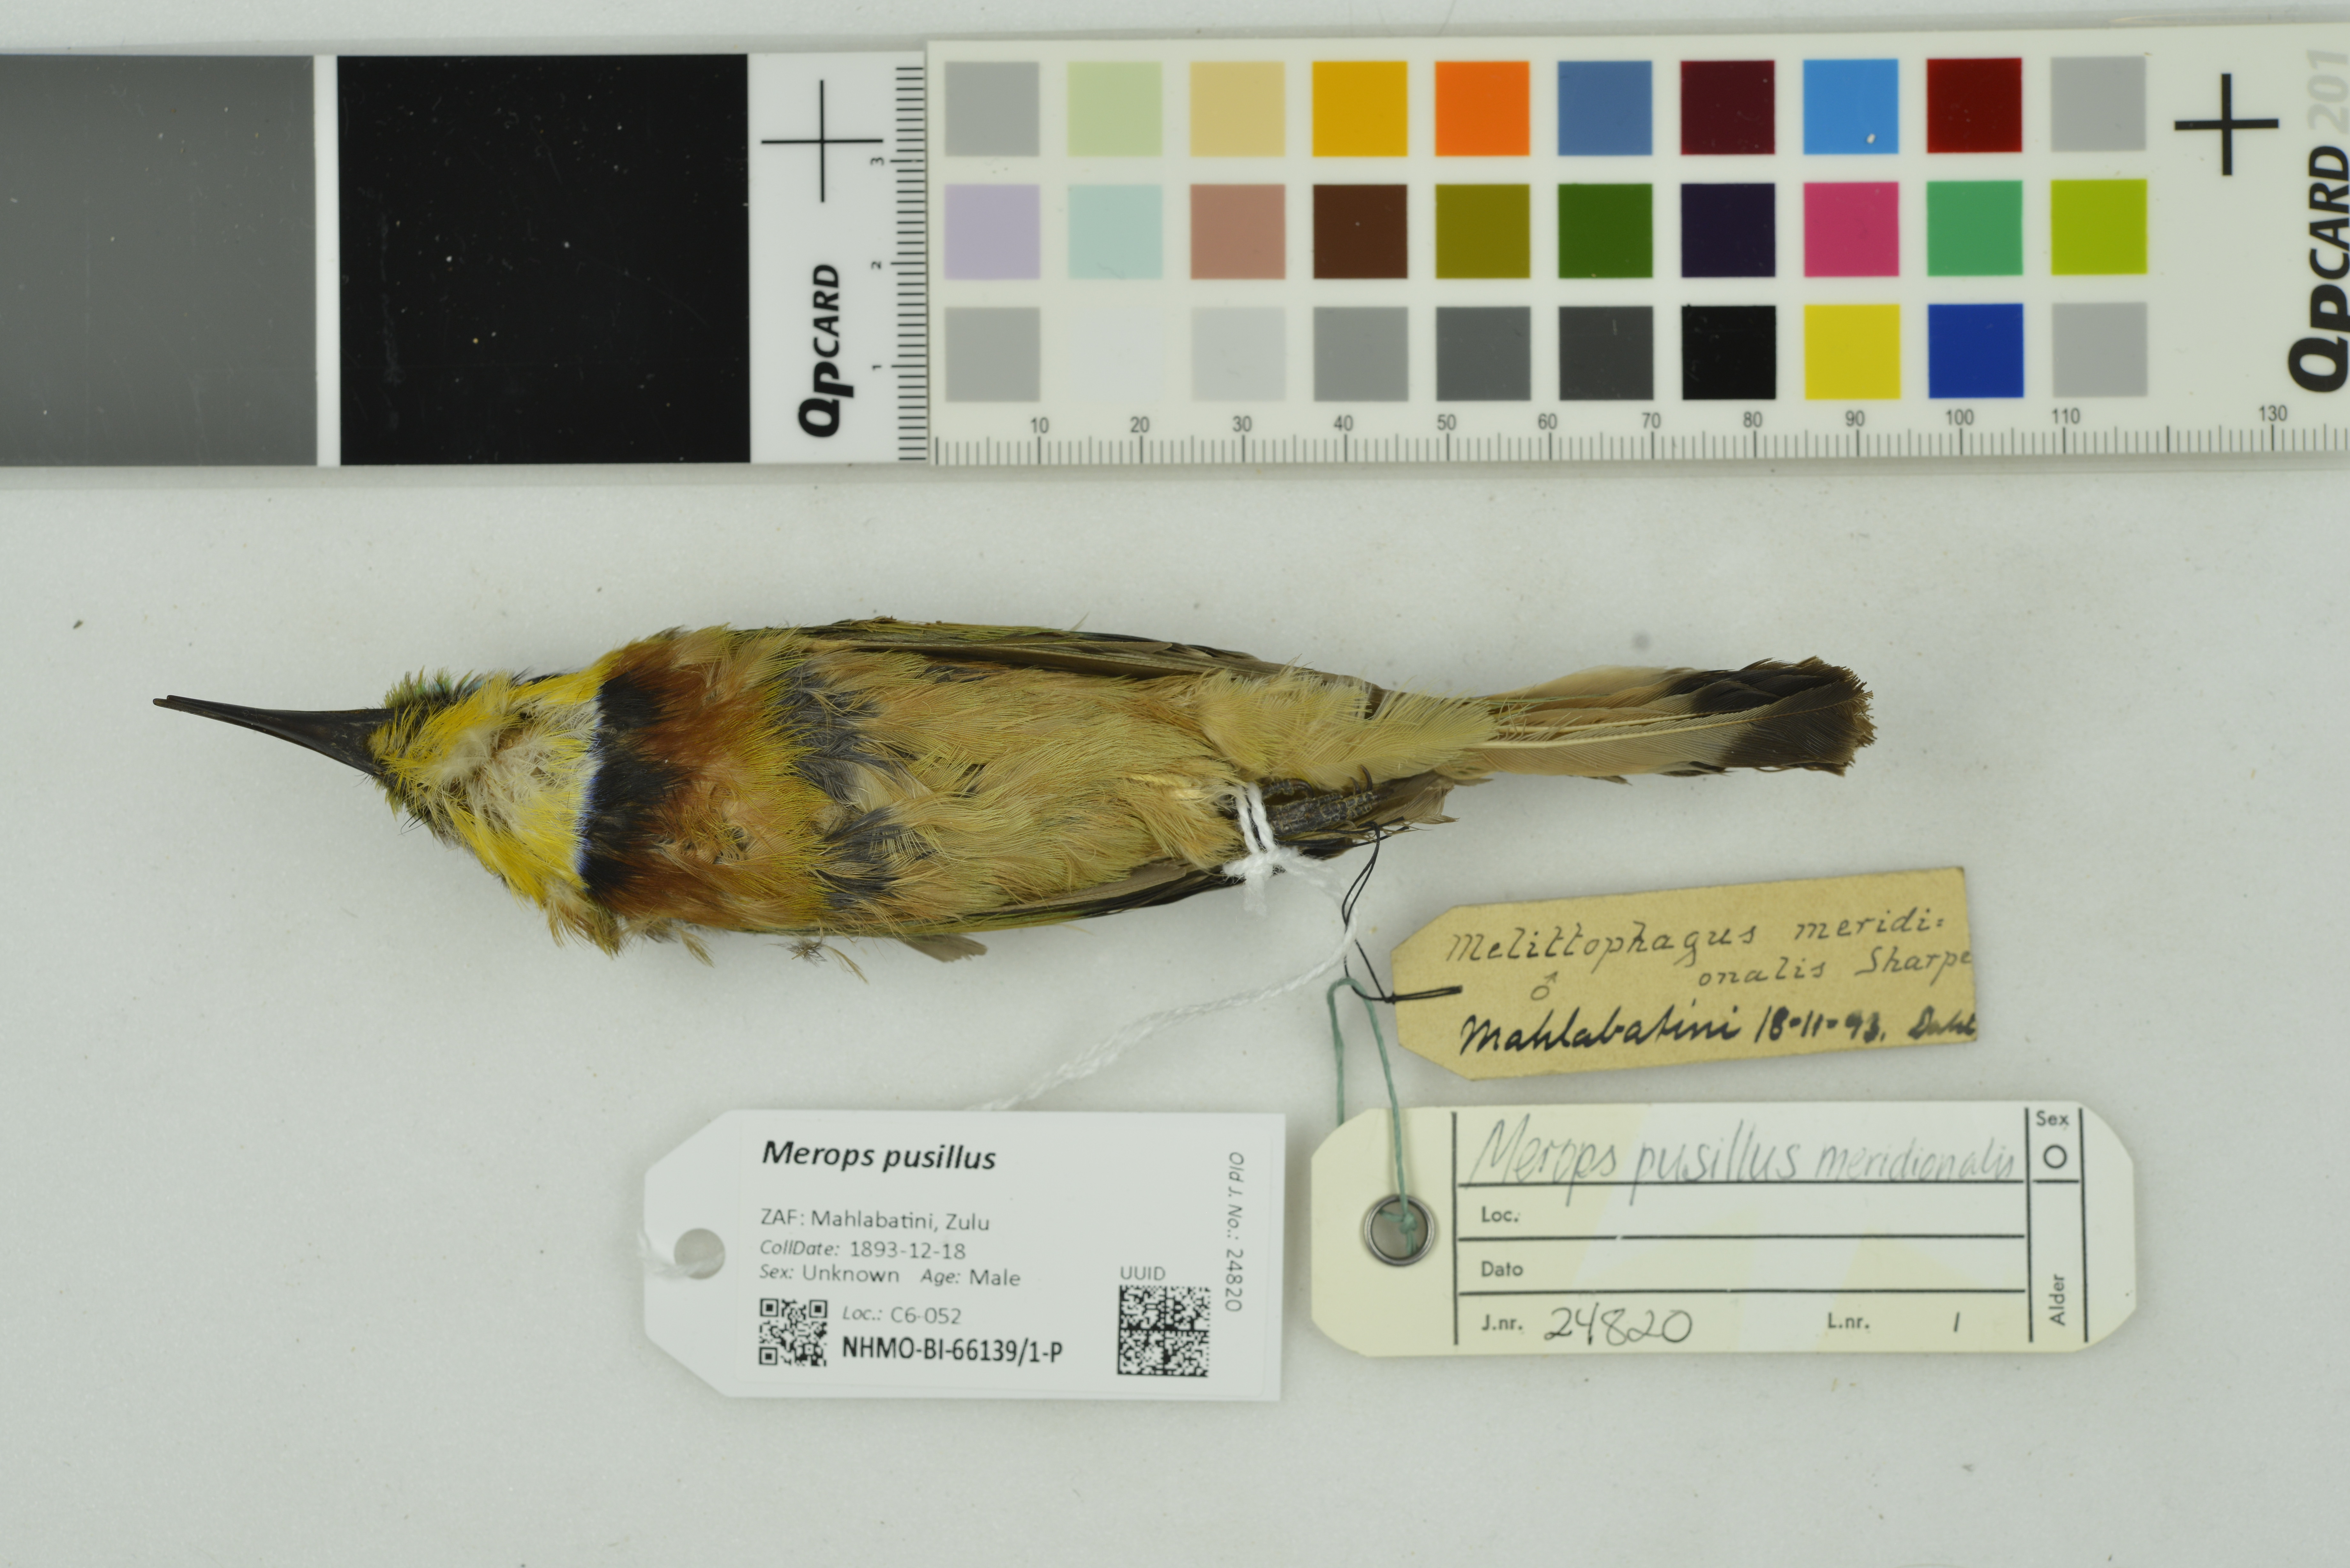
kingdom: Animalia
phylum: Chordata
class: Aves
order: Coraciiformes
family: Meropidae
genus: Merops
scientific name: Merops pusillus
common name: Little bee-eater
